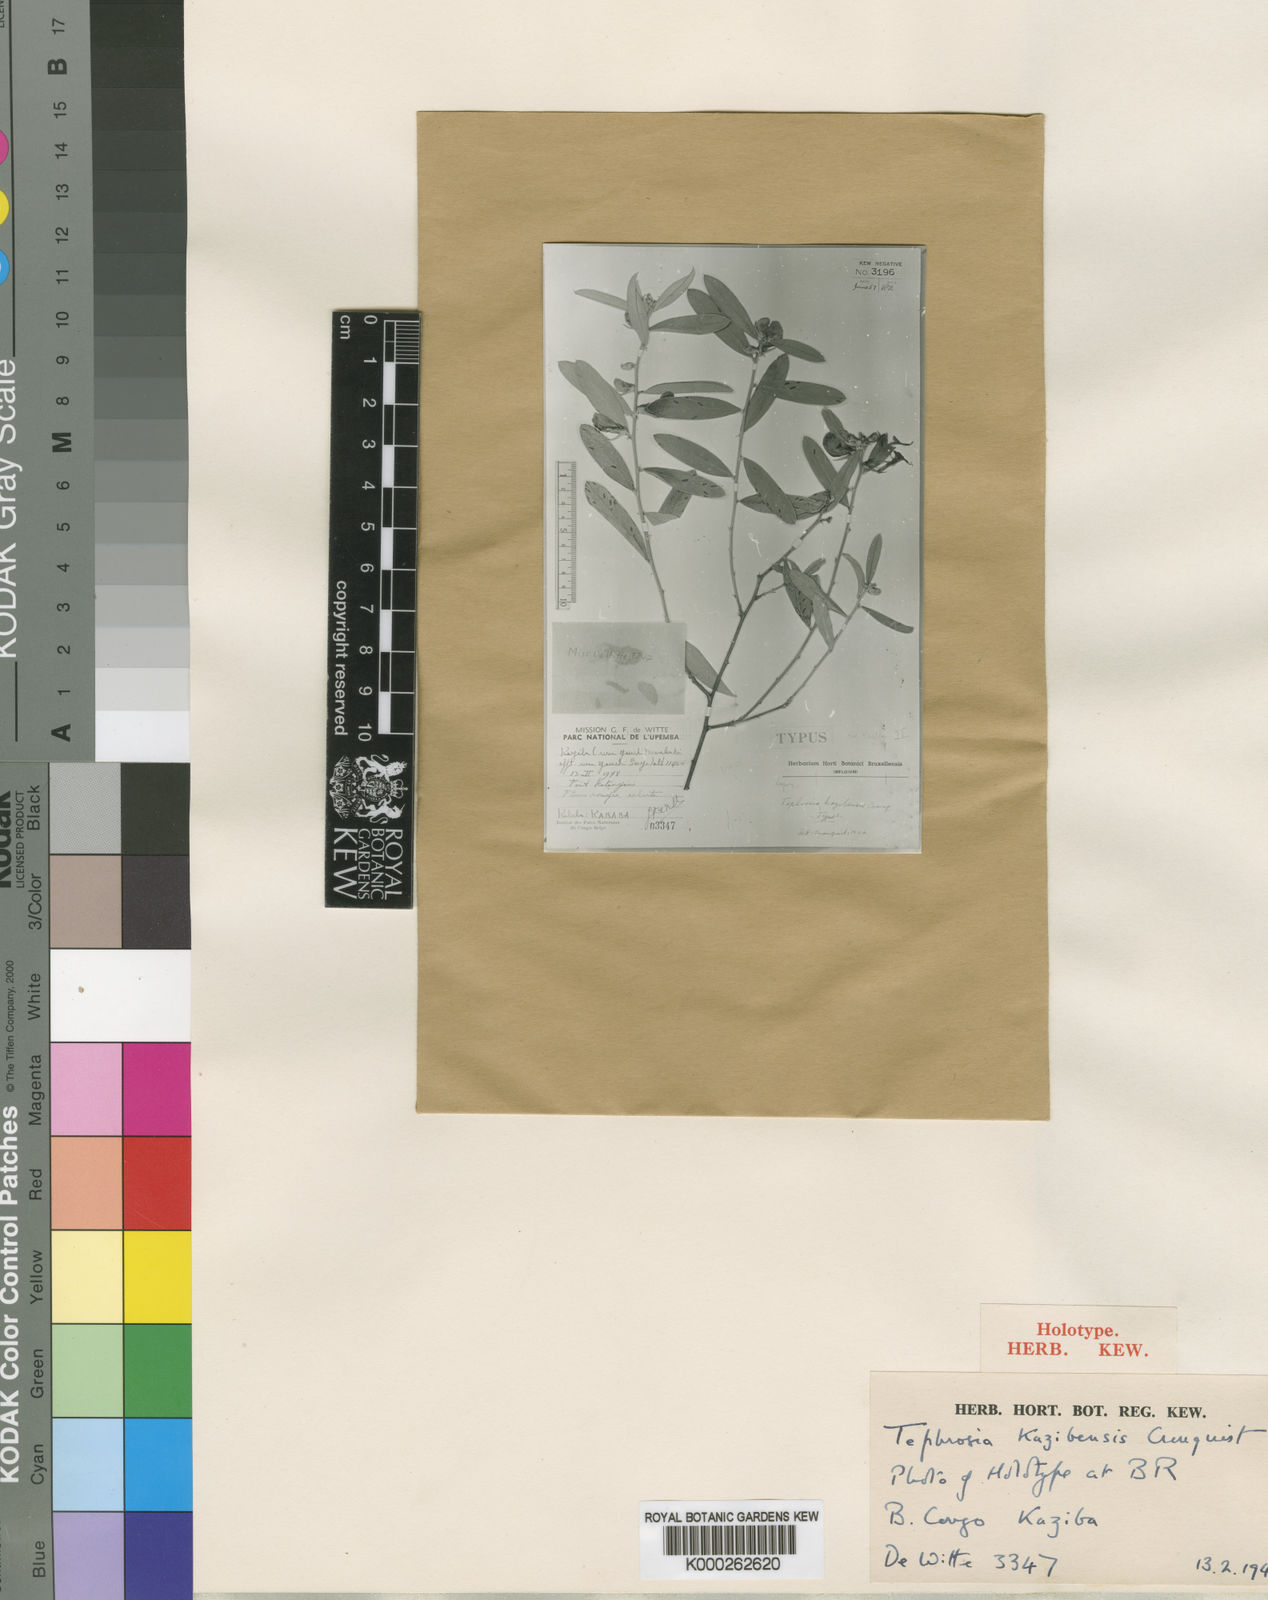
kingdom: Plantae
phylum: Tracheophyta
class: Magnoliopsida
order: Fabales
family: Fabaceae
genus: Tephrosia
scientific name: Tephrosia kazibensis
